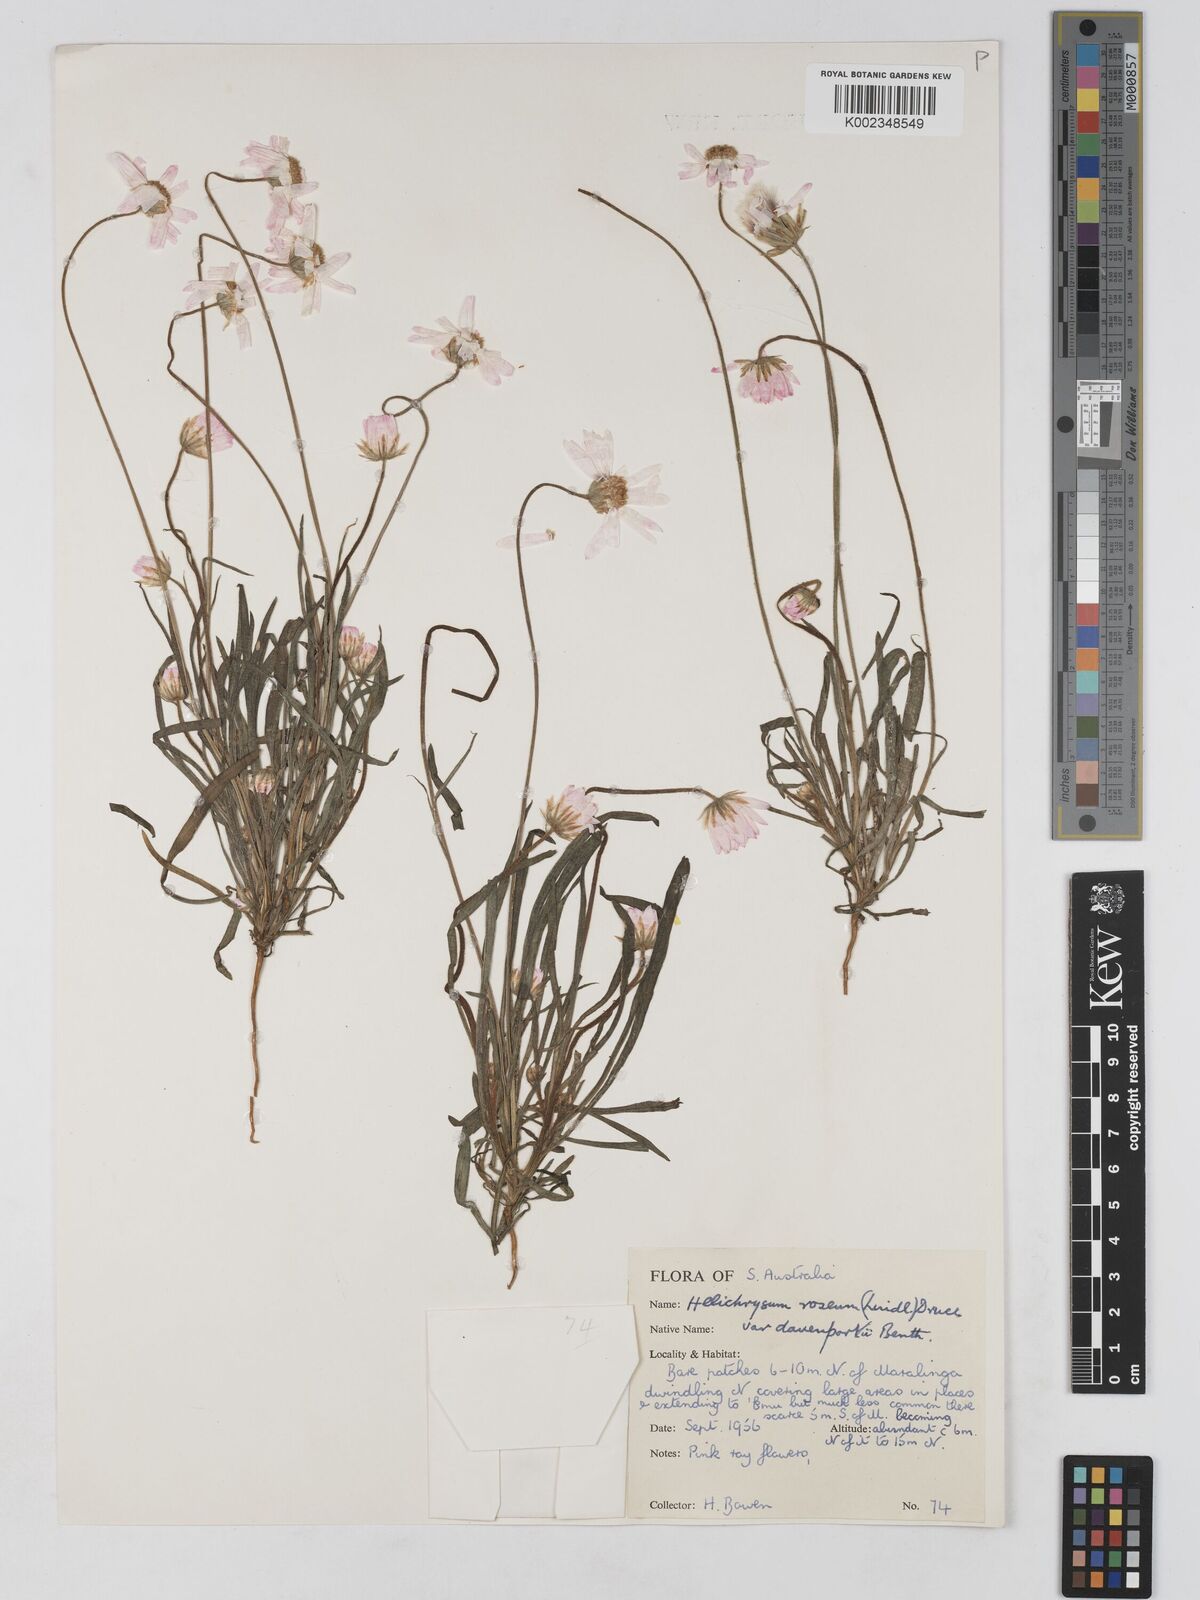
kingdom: Plantae
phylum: Tracheophyta
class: Magnoliopsida
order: Asterales
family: Asteraceae
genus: Lawrencella
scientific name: Lawrencella davenportii
